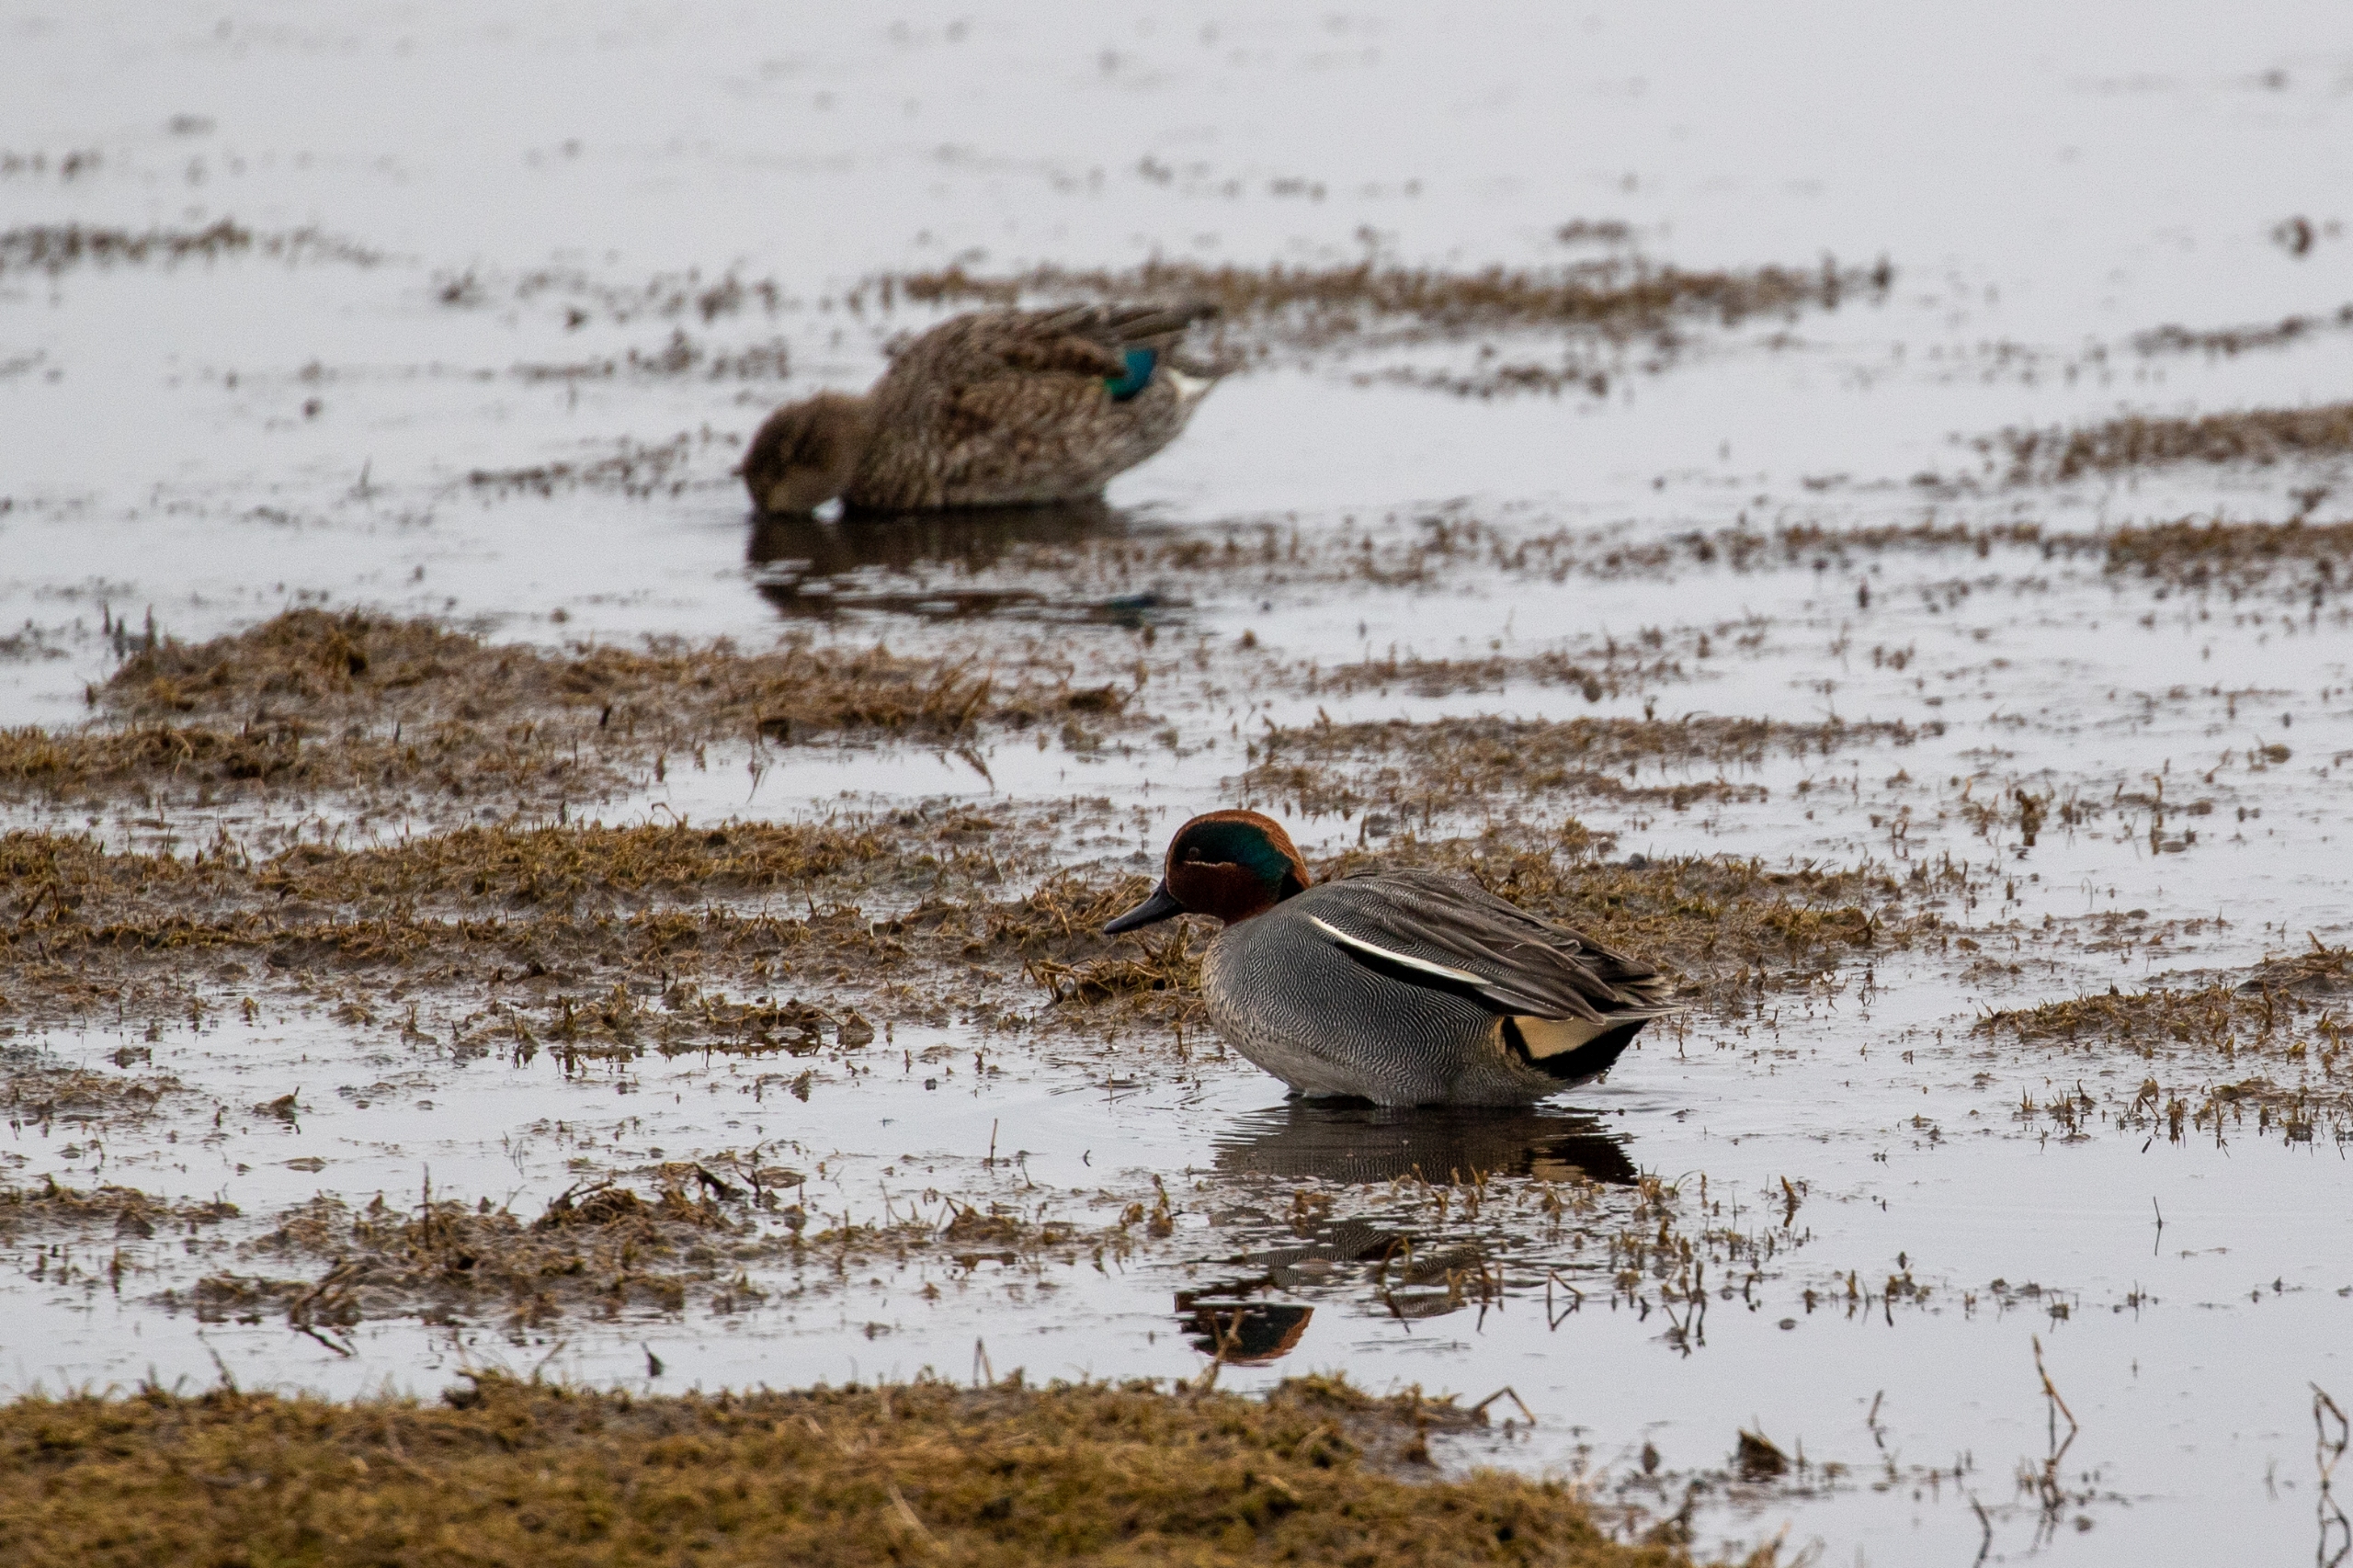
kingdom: Animalia
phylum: Chordata
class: Aves
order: Anseriformes
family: Anatidae
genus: Anas
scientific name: Anas crecca
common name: Krikand
